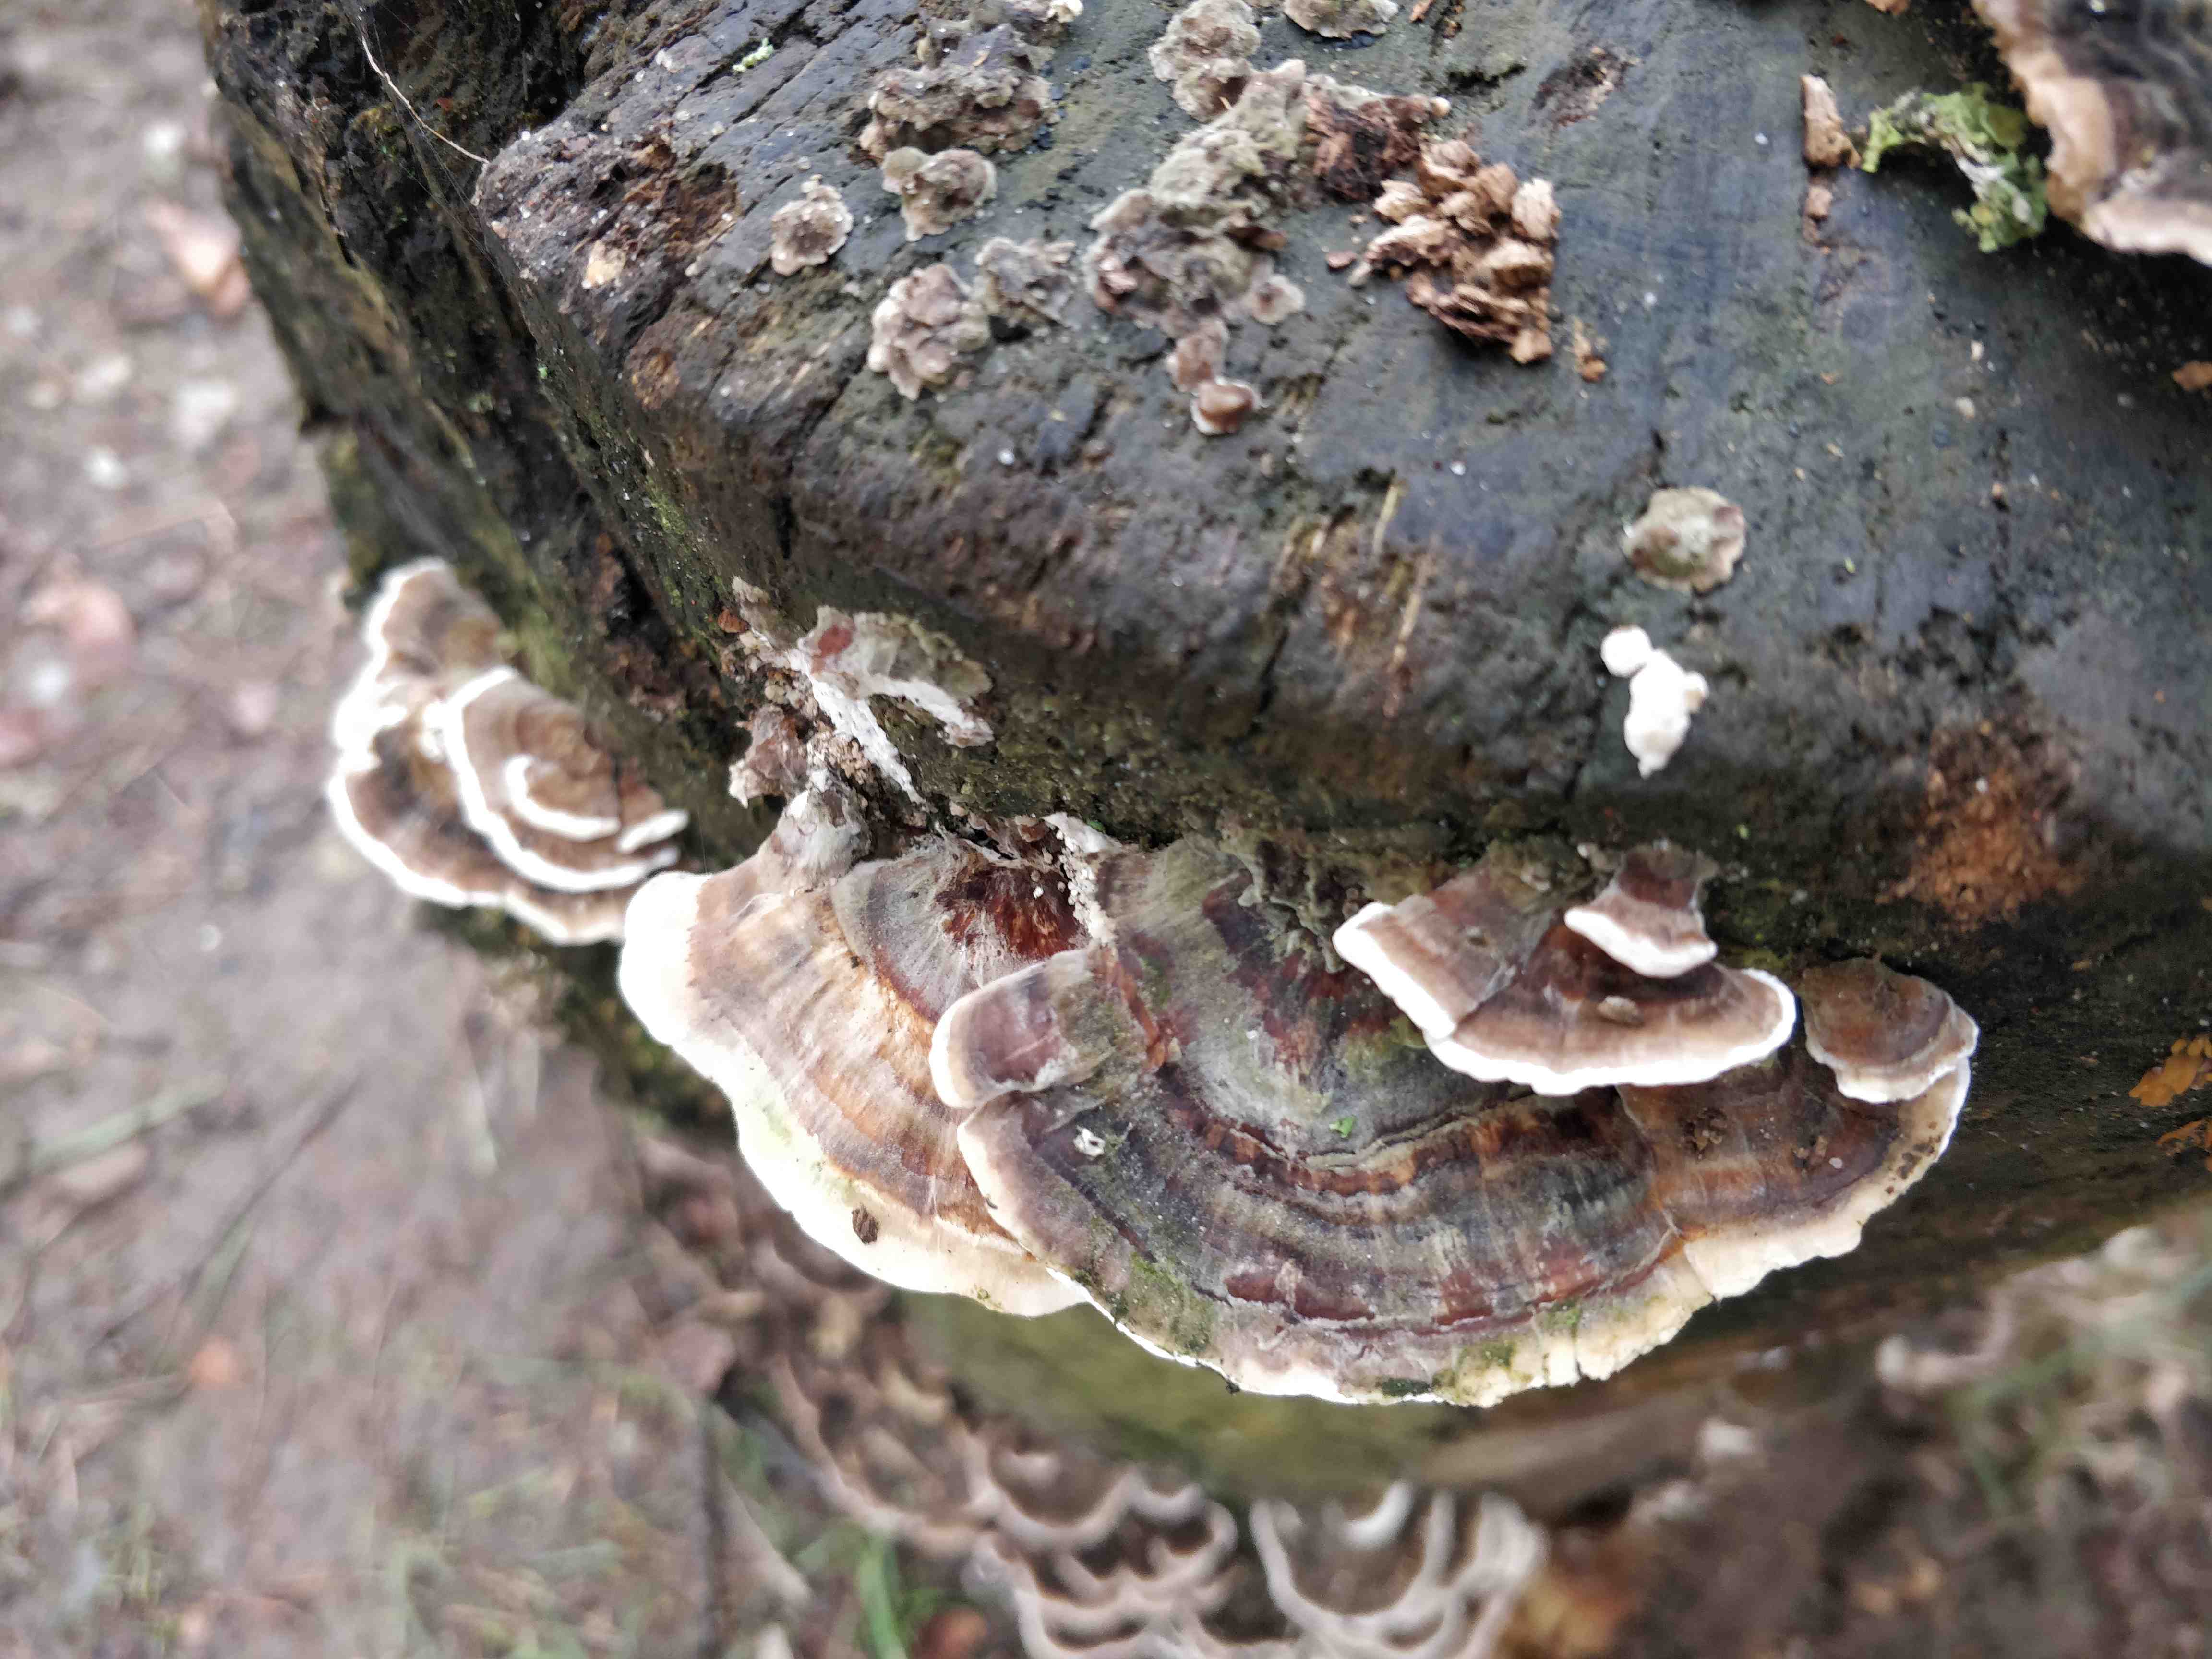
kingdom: Fungi
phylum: Basidiomycota
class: Agaricomycetes
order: Polyporales
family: Polyporaceae
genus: Trametes
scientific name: Trametes versicolor
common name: broget læderporesvamp
